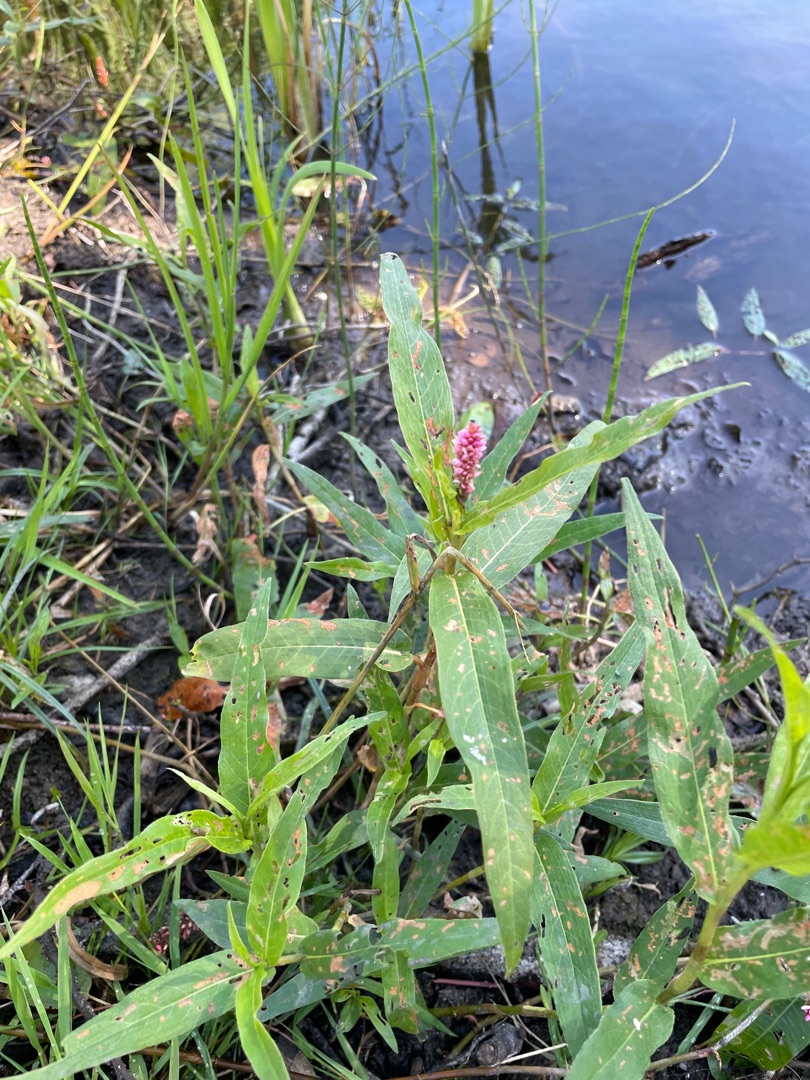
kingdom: Plantae
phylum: Tracheophyta
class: Magnoliopsida
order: Caryophyllales
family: Polygonaceae
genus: Persicaria
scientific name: Persicaria amphibia
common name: Vand-pileurt
